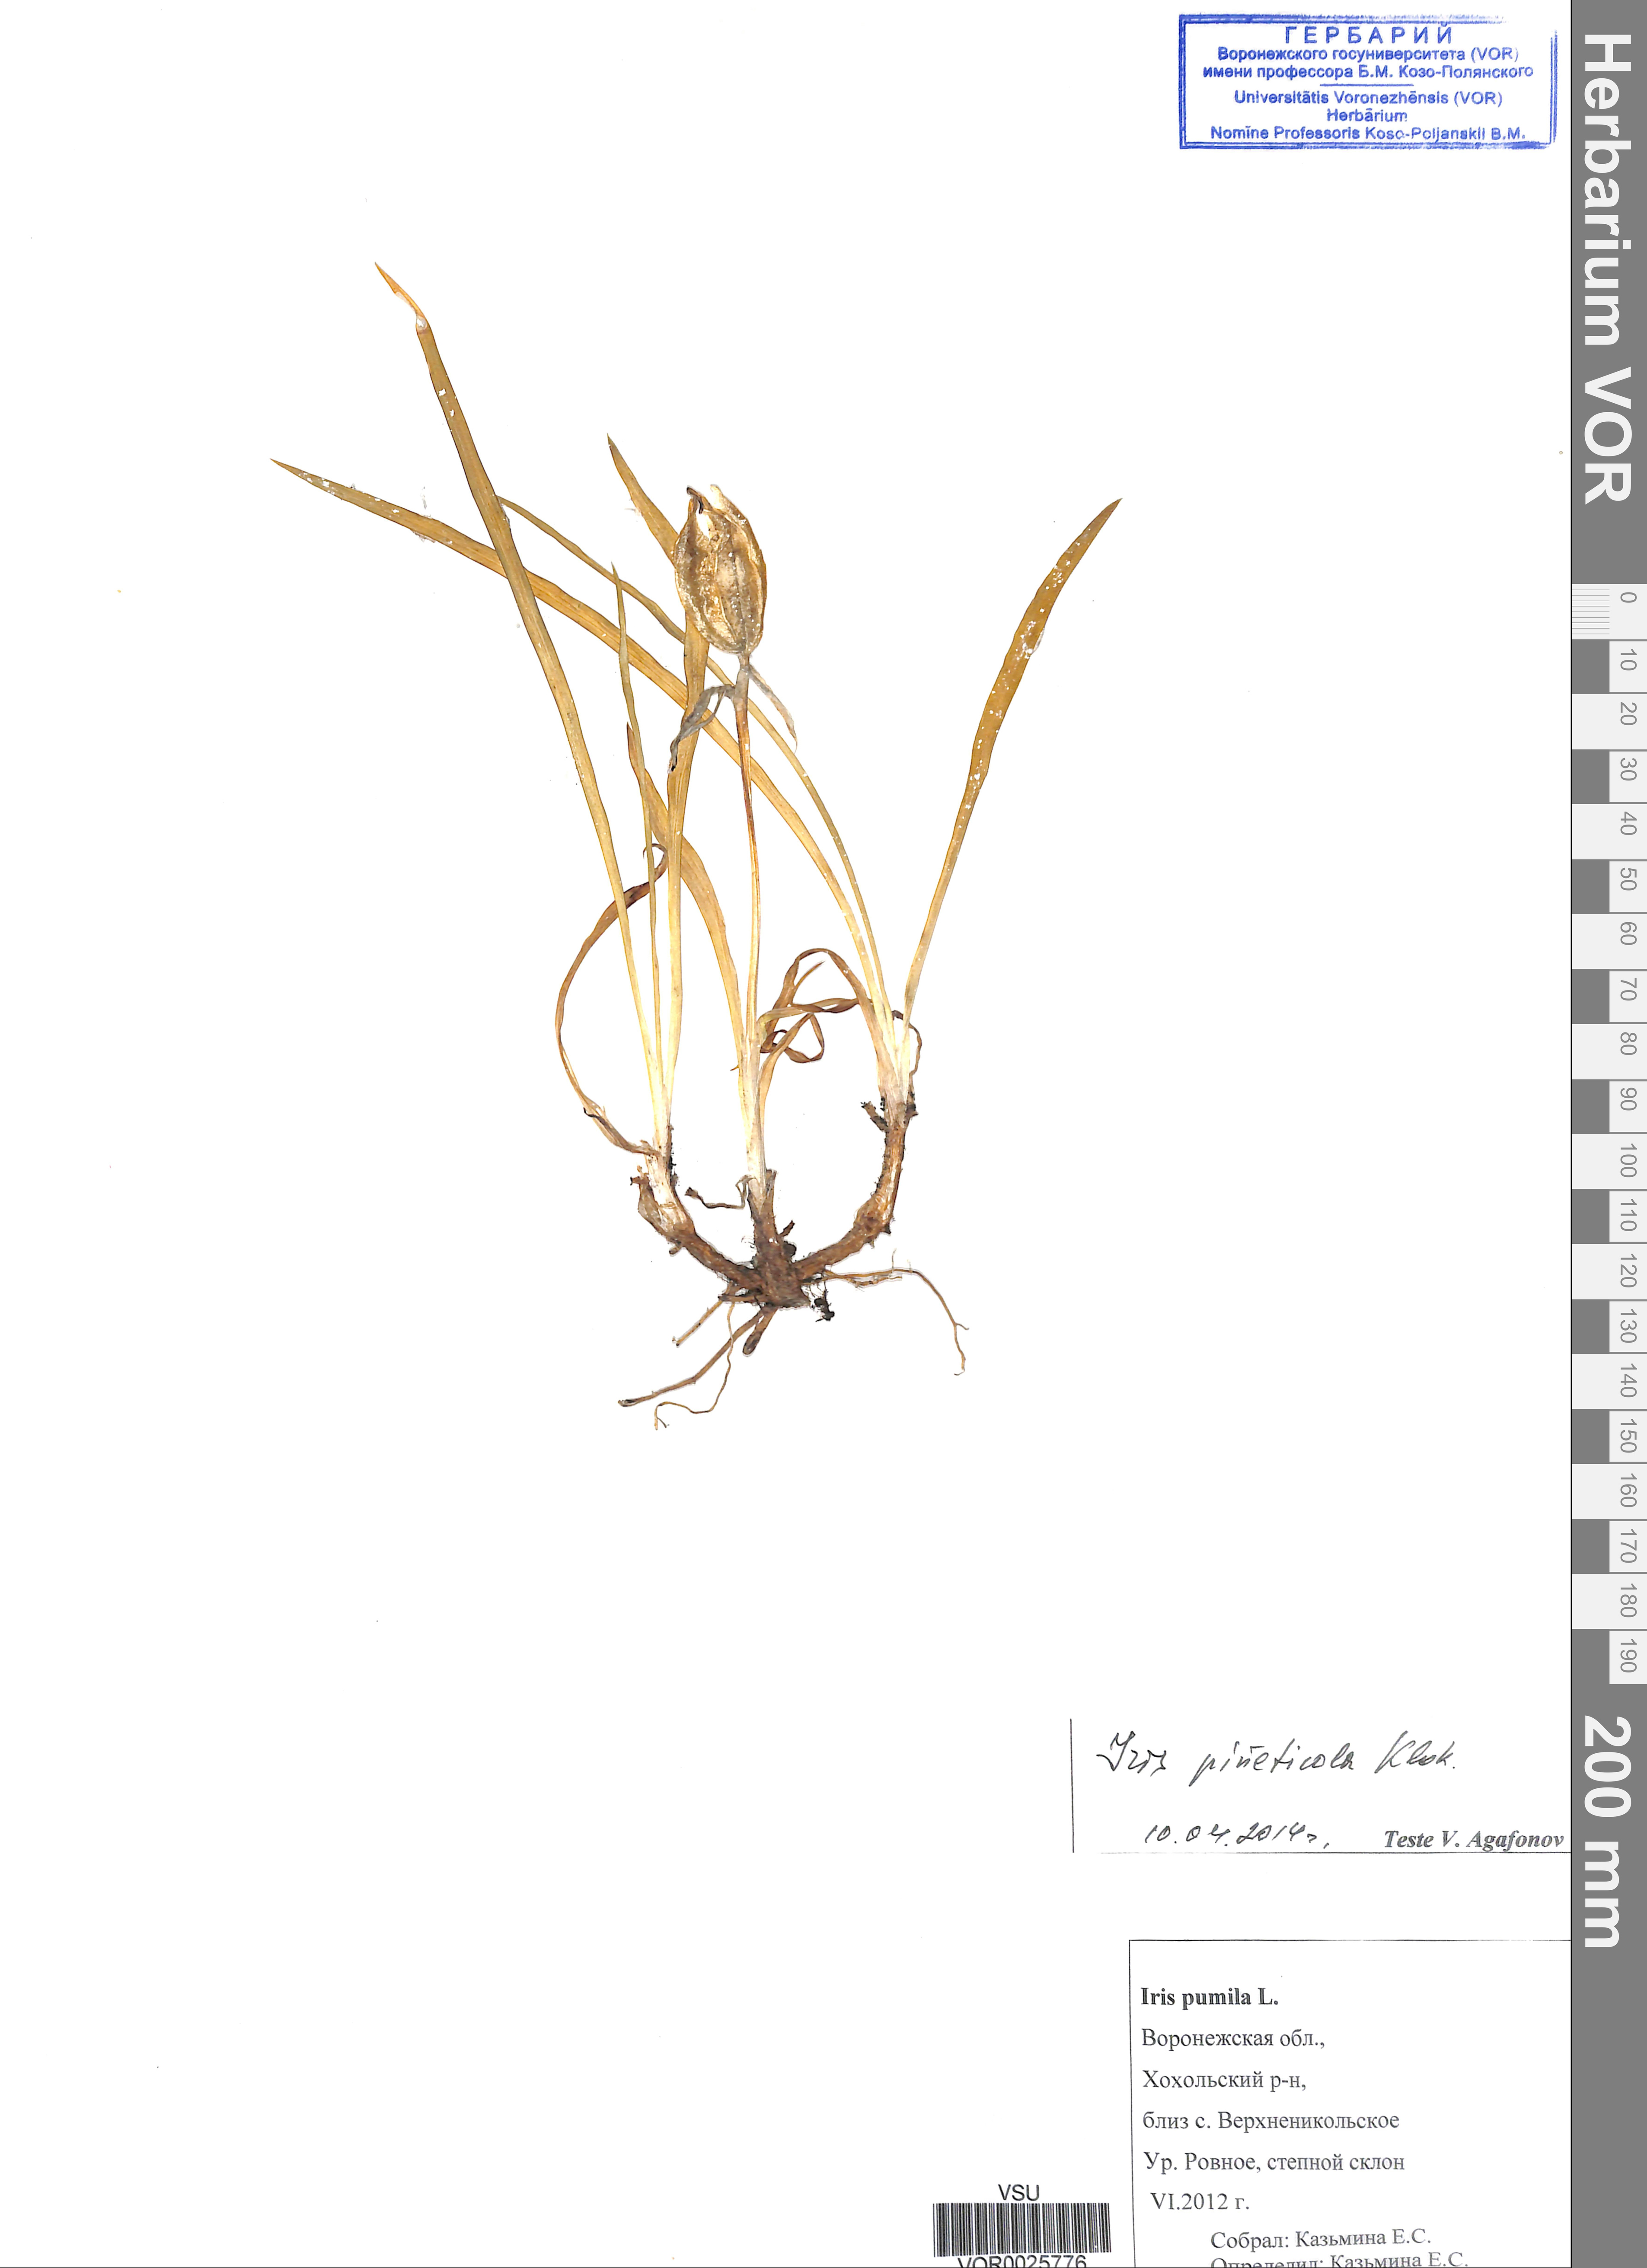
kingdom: Plantae
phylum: Tracheophyta
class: Liliopsida
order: Asparagales
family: Iridaceae
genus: Iris
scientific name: Iris arenaria
